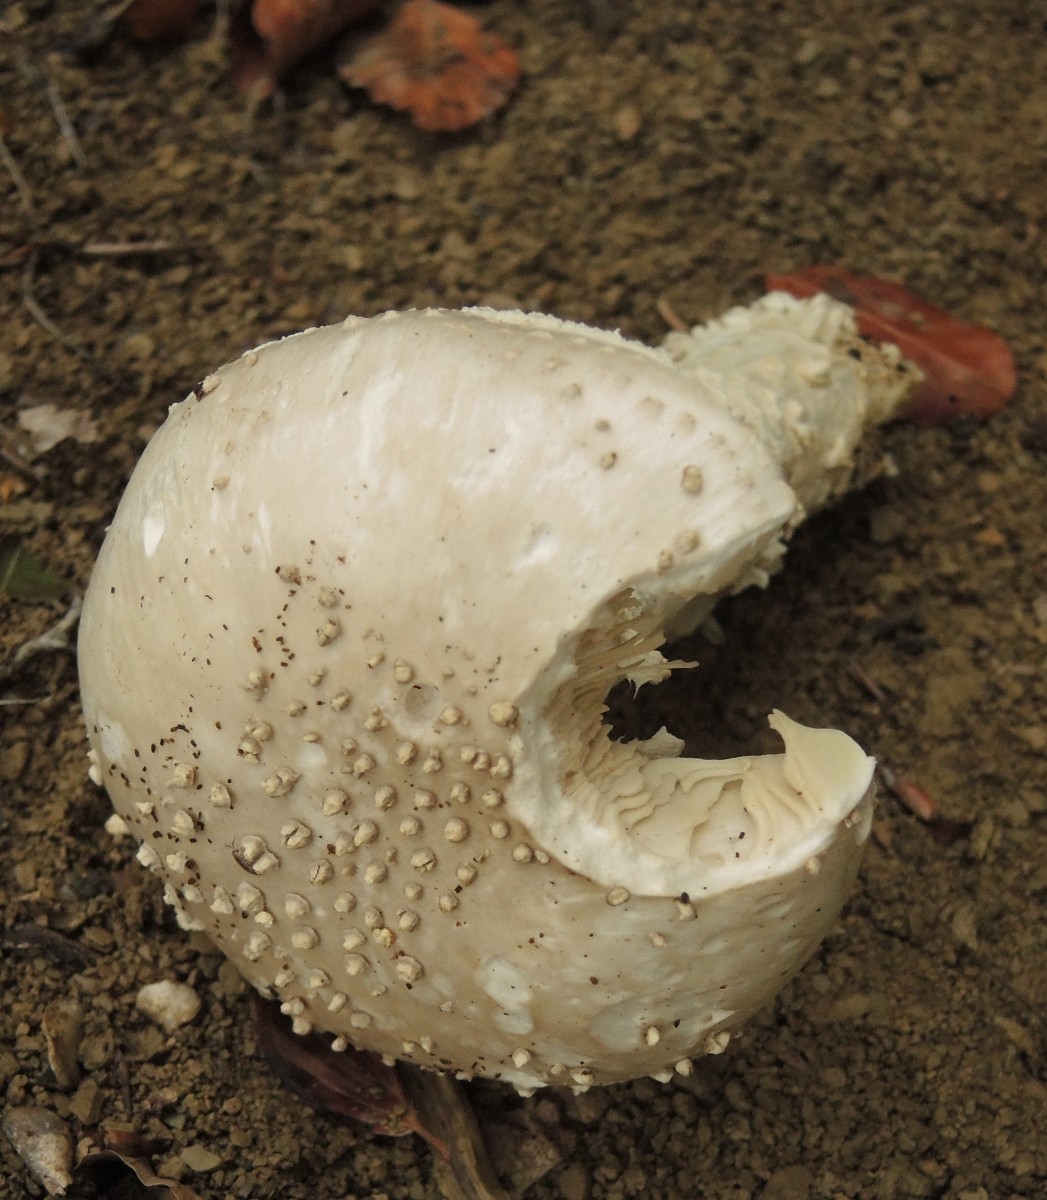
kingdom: Fungi
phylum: Basidiomycota
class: Agaricomycetes
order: Agaricales
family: Amanitaceae
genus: Aspidella
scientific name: Aspidella solitaria
